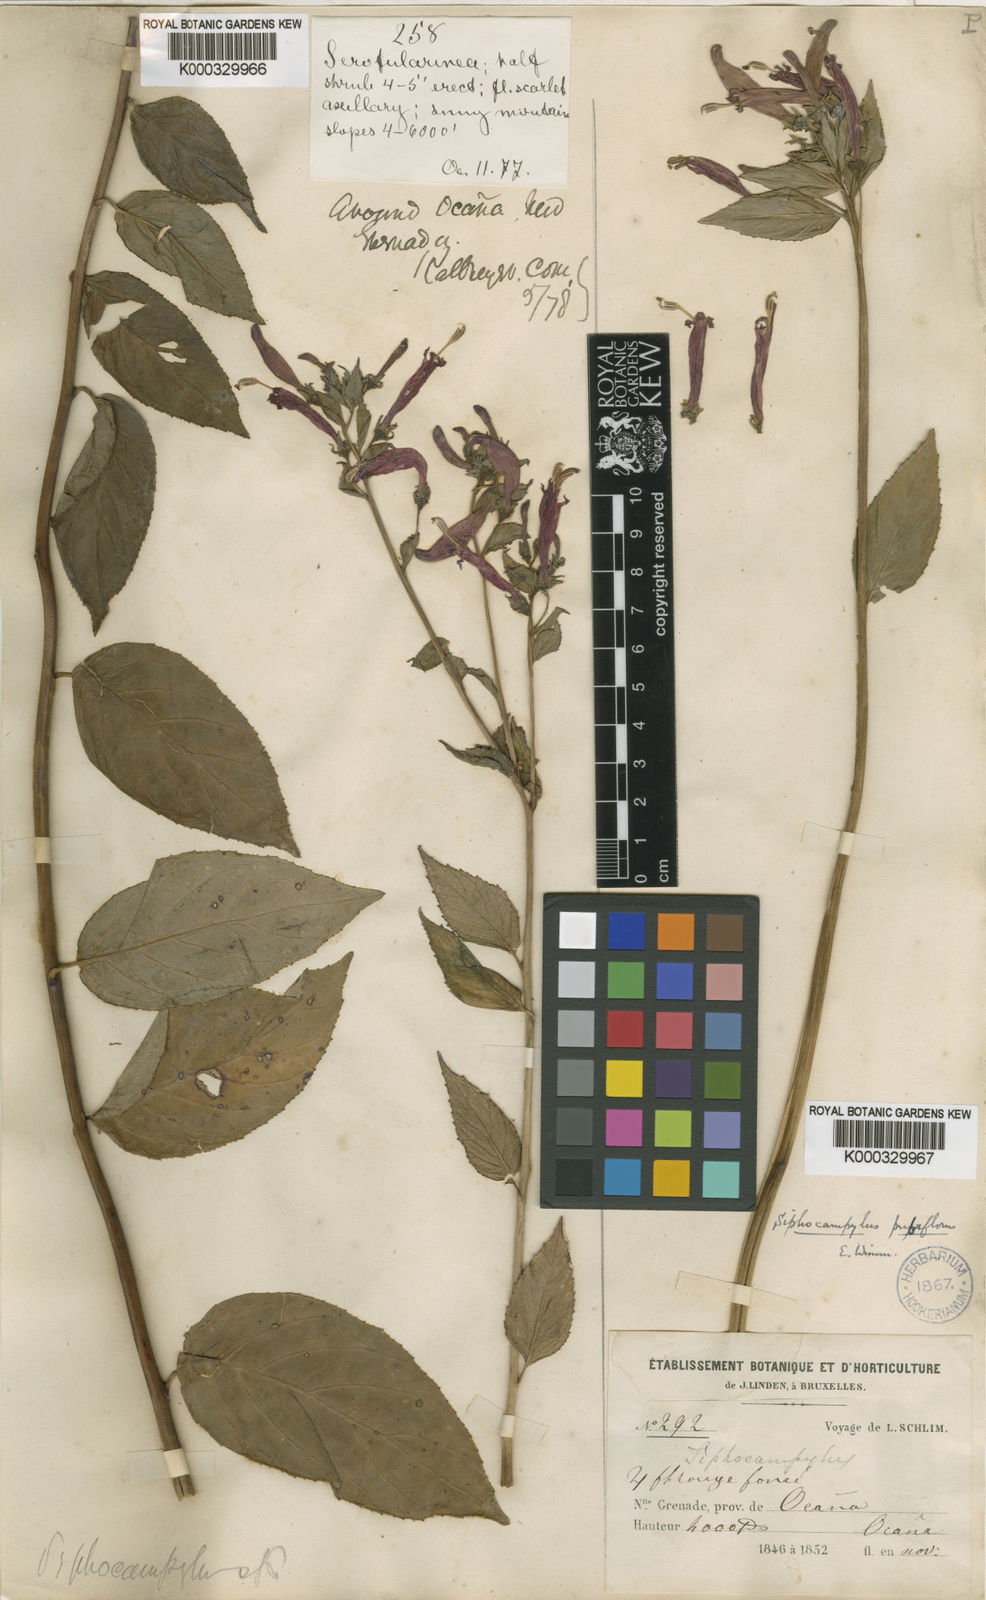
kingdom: Plantae
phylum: Tracheophyta
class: Magnoliopsida
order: Asterales
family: Campanulaceae
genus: Siphocampylus
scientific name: Siphocampylus lindleyi
